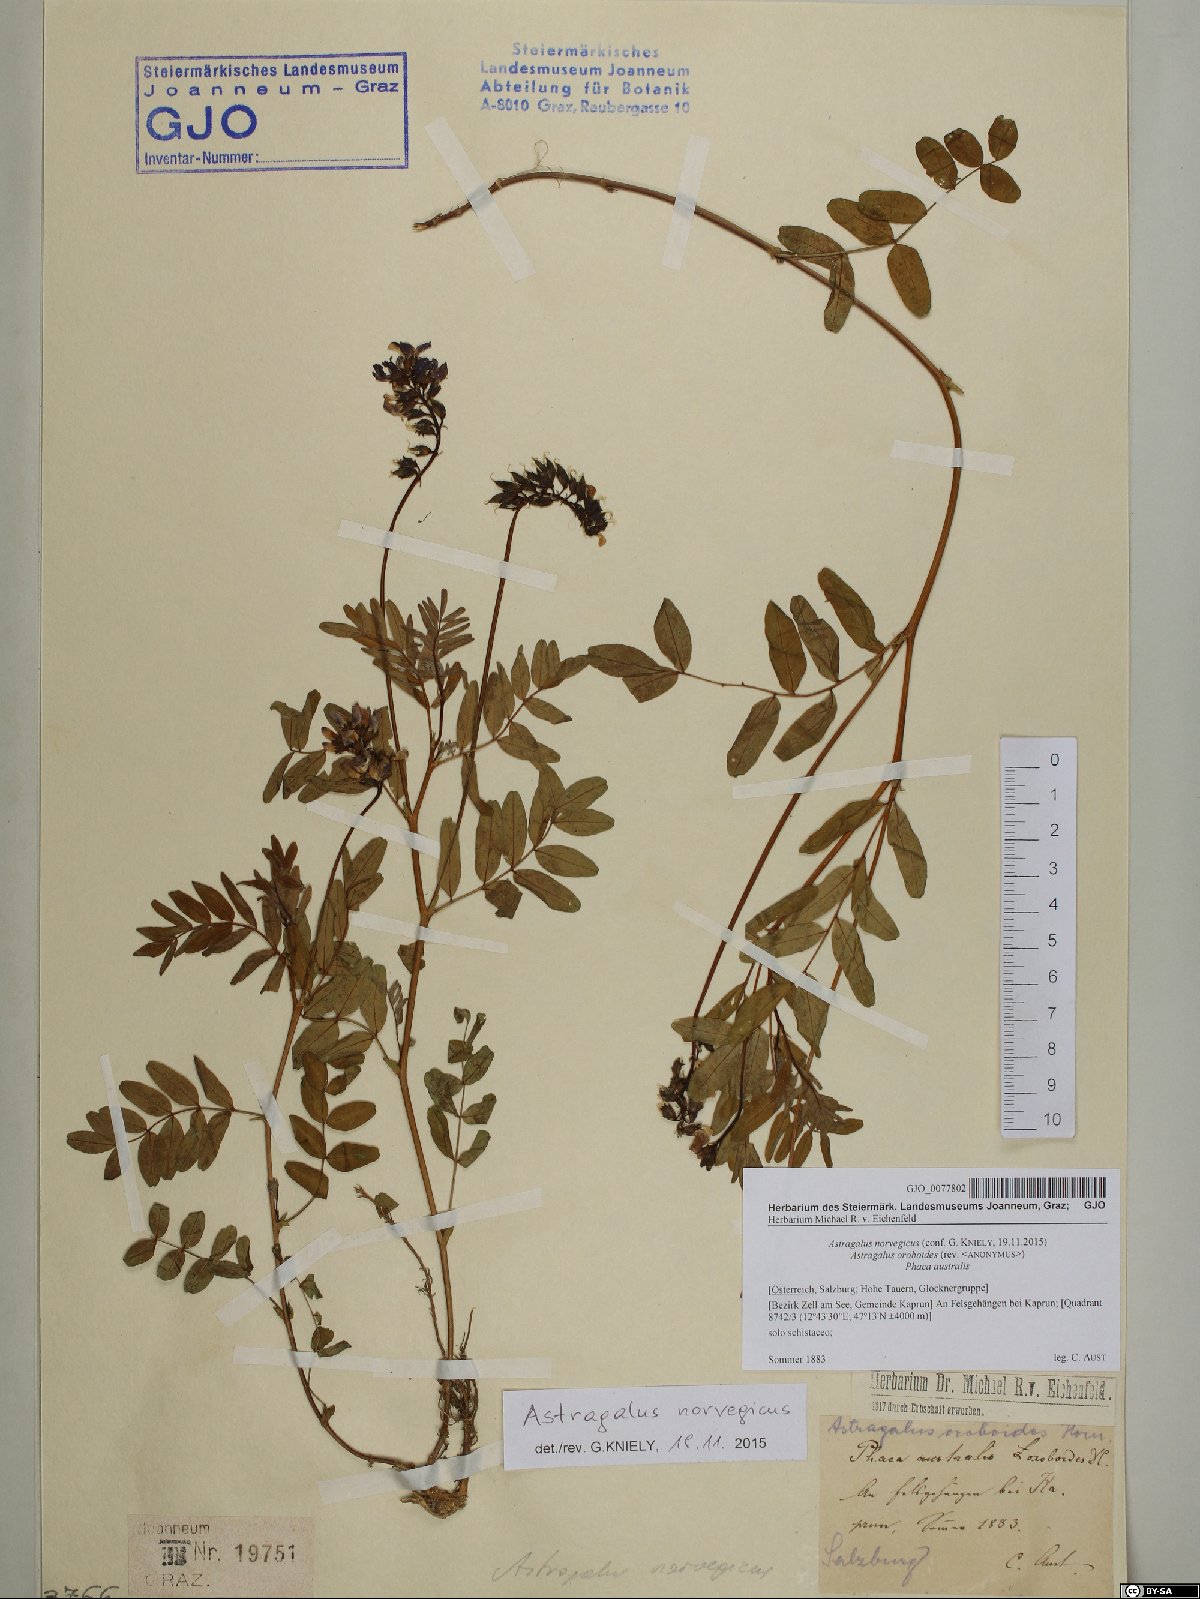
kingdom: Plantae
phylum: Tracheophyta
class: Magnoliopsida
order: Fabales
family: Fabaceae
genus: Astragalus
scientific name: Astragalus norvegicus
